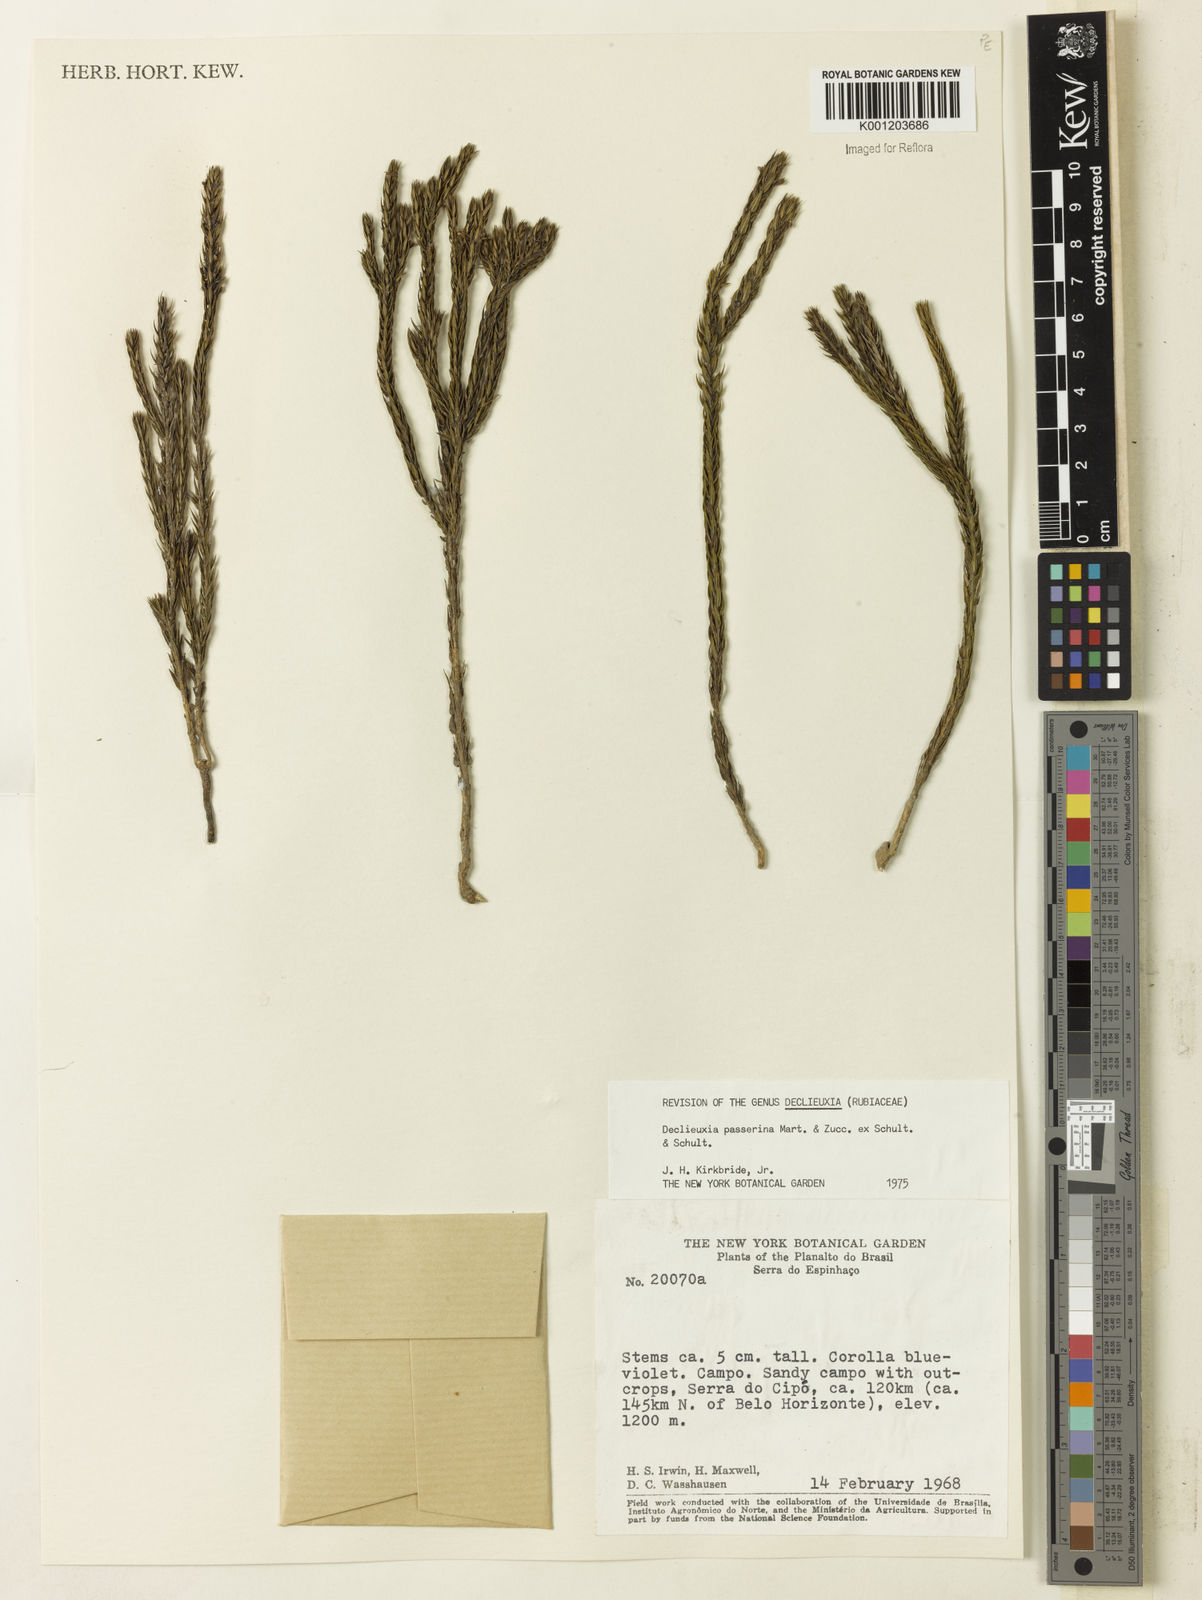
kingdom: Plantae
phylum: Tracheophyta
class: Magnoliopsida
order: Gentianales
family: Rubiaceae
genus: Declieuxia
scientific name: Declieuxia
